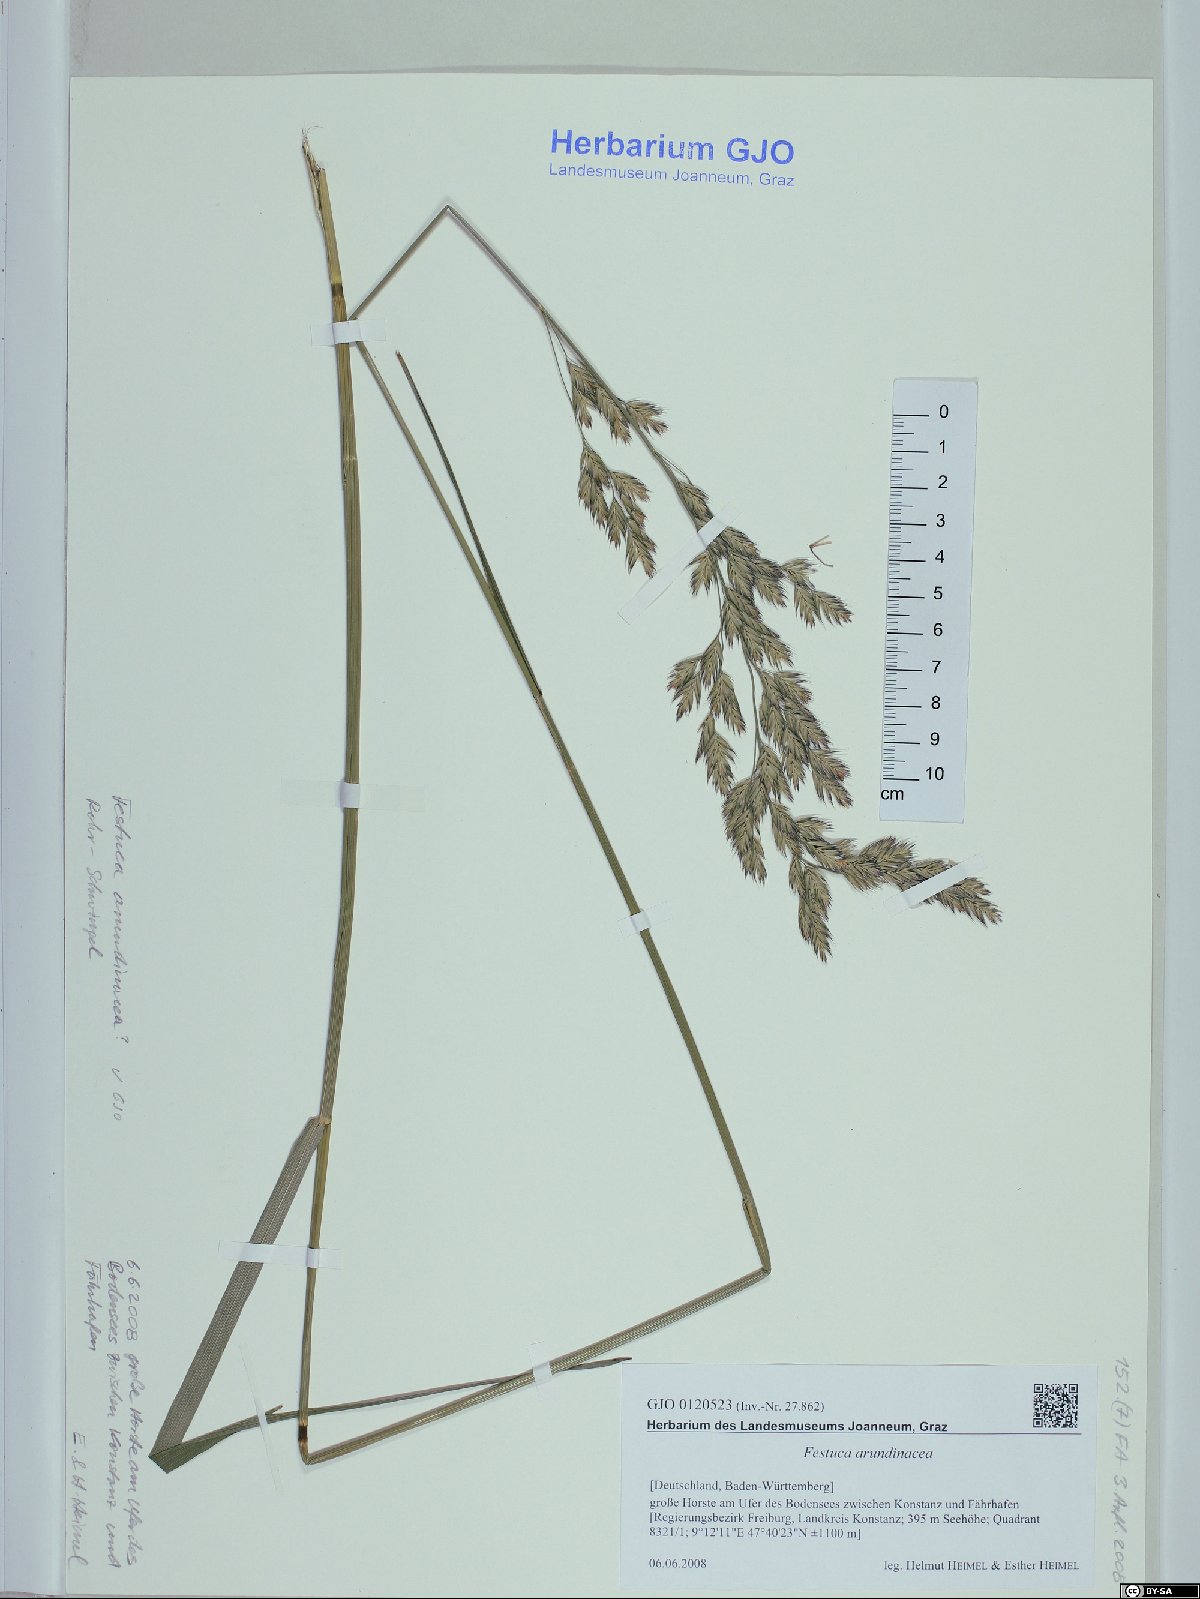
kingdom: Plantae
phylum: Tracheophyta
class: Liliopsida
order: Poales
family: Poaceae
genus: Lolium
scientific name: Lolium arundinaceum
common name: Reed fescue
